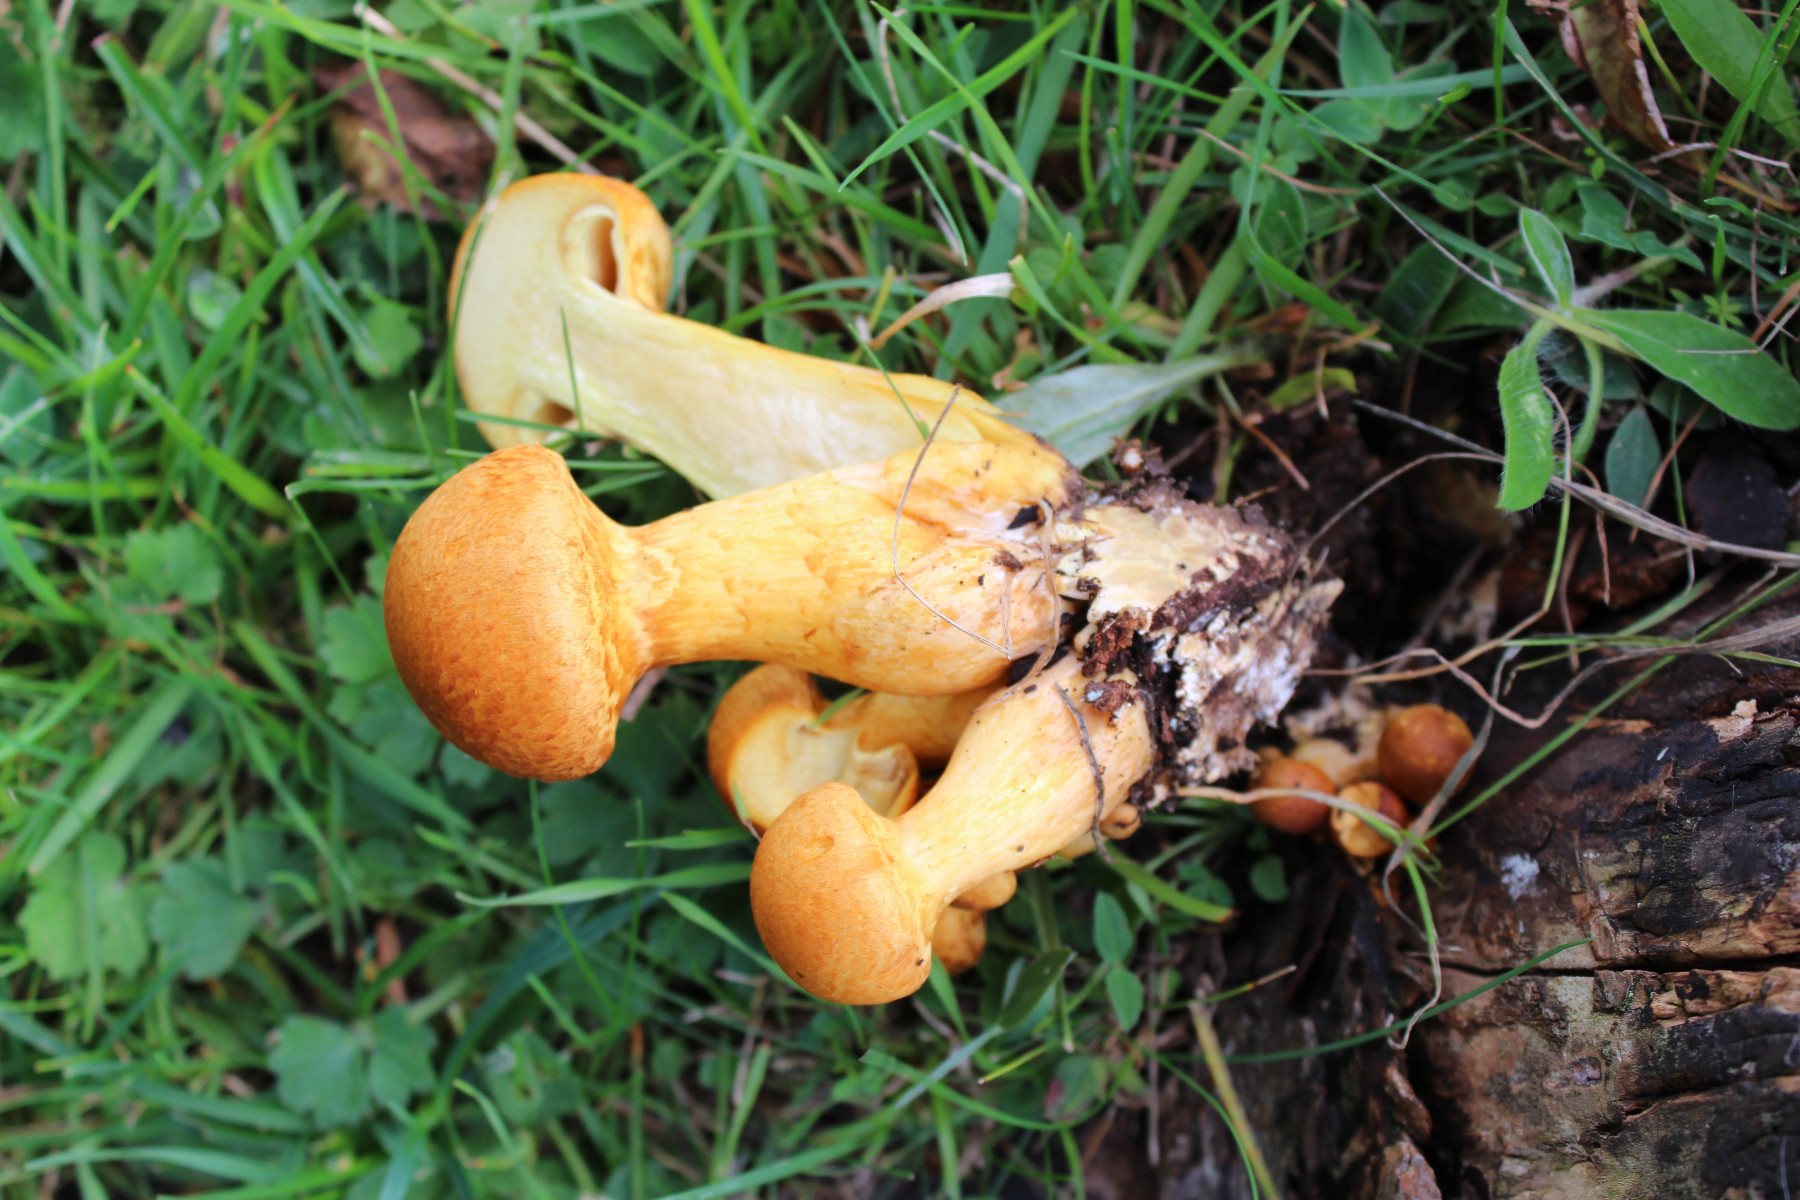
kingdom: Fungi
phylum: Basidiomycota
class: Agaricomycetes
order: Agaricales
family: Hymenogastraceae
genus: Gymnopilus
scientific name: Gymnopilus spectabilis
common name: fibret flammehat
